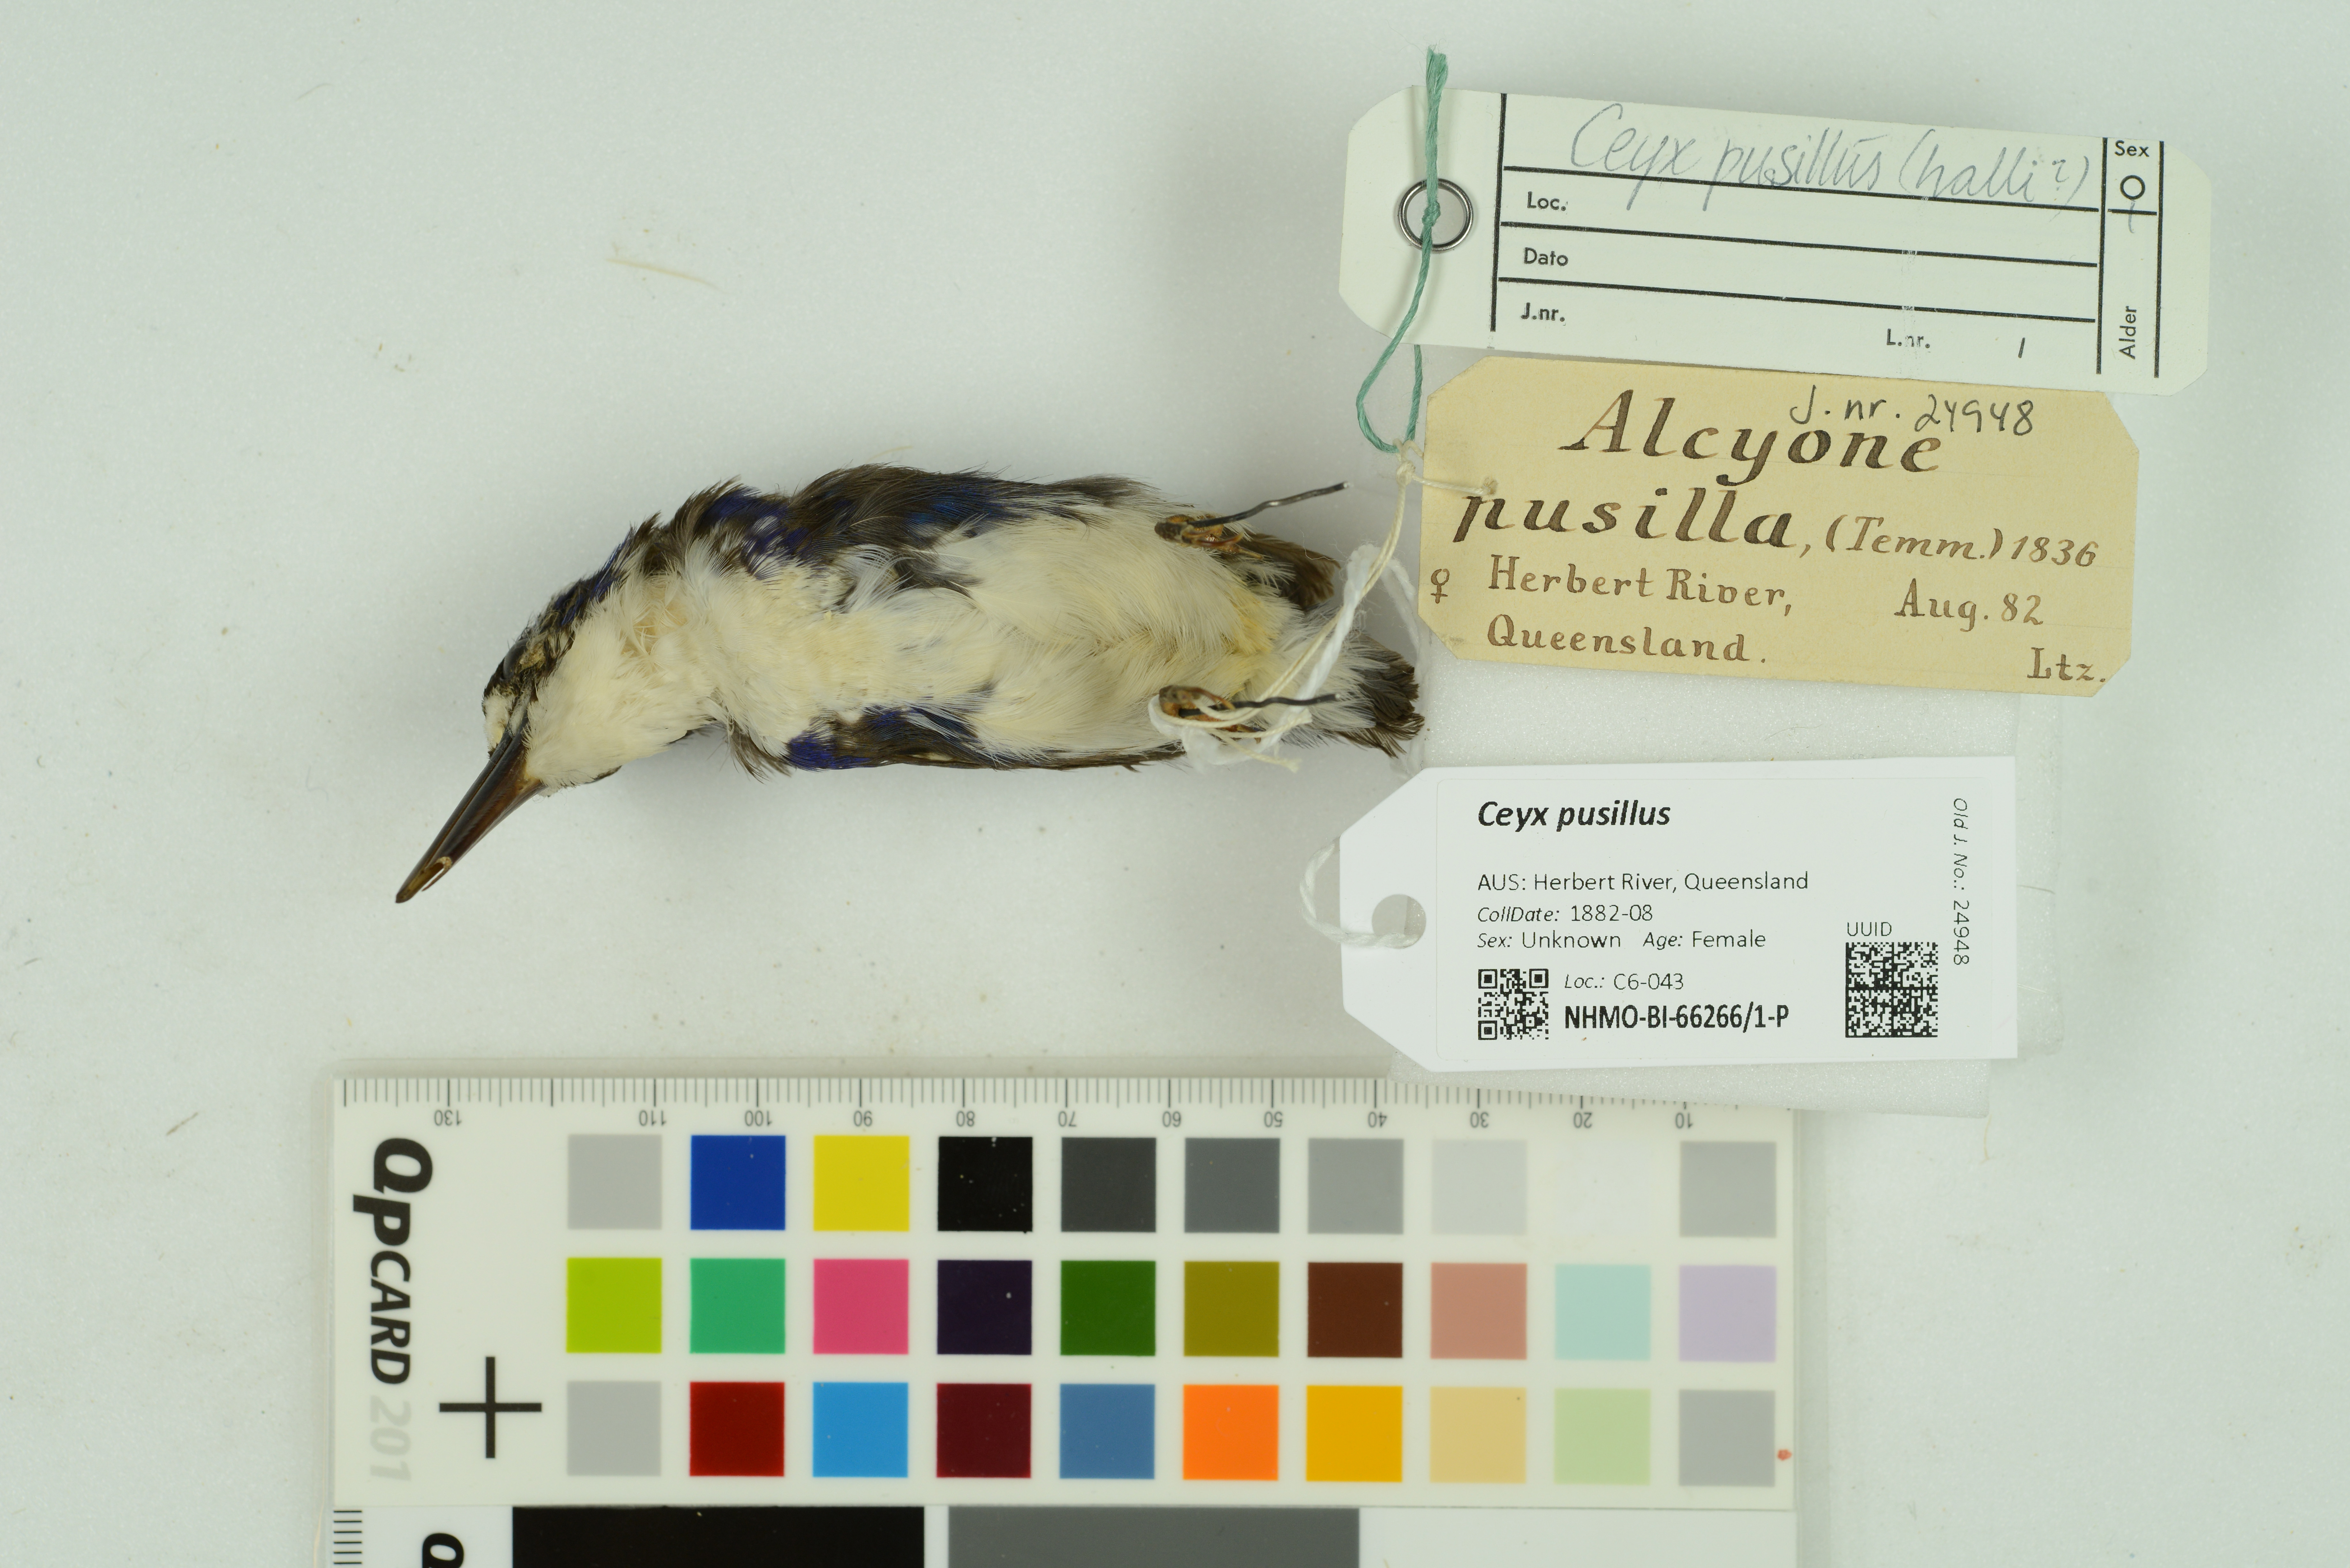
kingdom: Animalia
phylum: Chordata
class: Aves
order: Coraciiformes
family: Alcedinidae
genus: Ceyx
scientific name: Ceyx pusillus
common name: Little kingfisher
